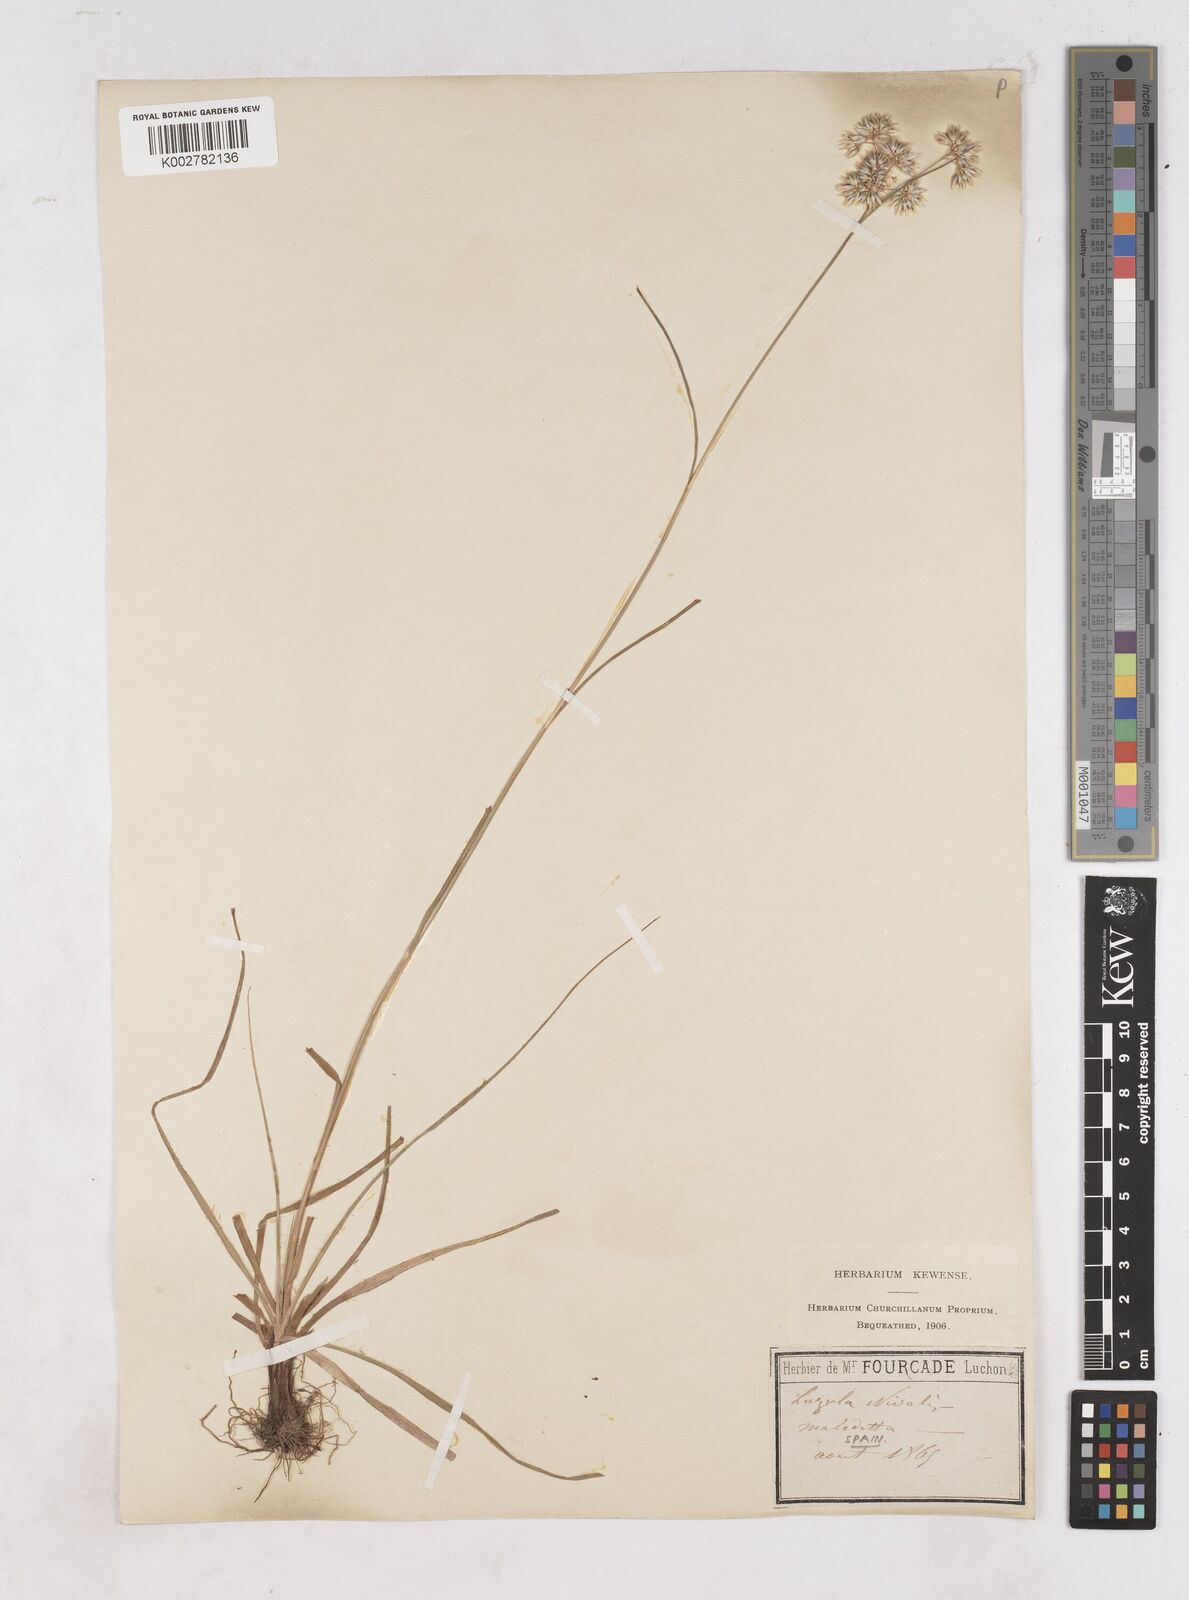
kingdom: Plantae
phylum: Tracheophyta
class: Liliopsida
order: Poales
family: Juncaceae
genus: Luzula
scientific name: Luzula nivea
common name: Snow-white wood-rush
